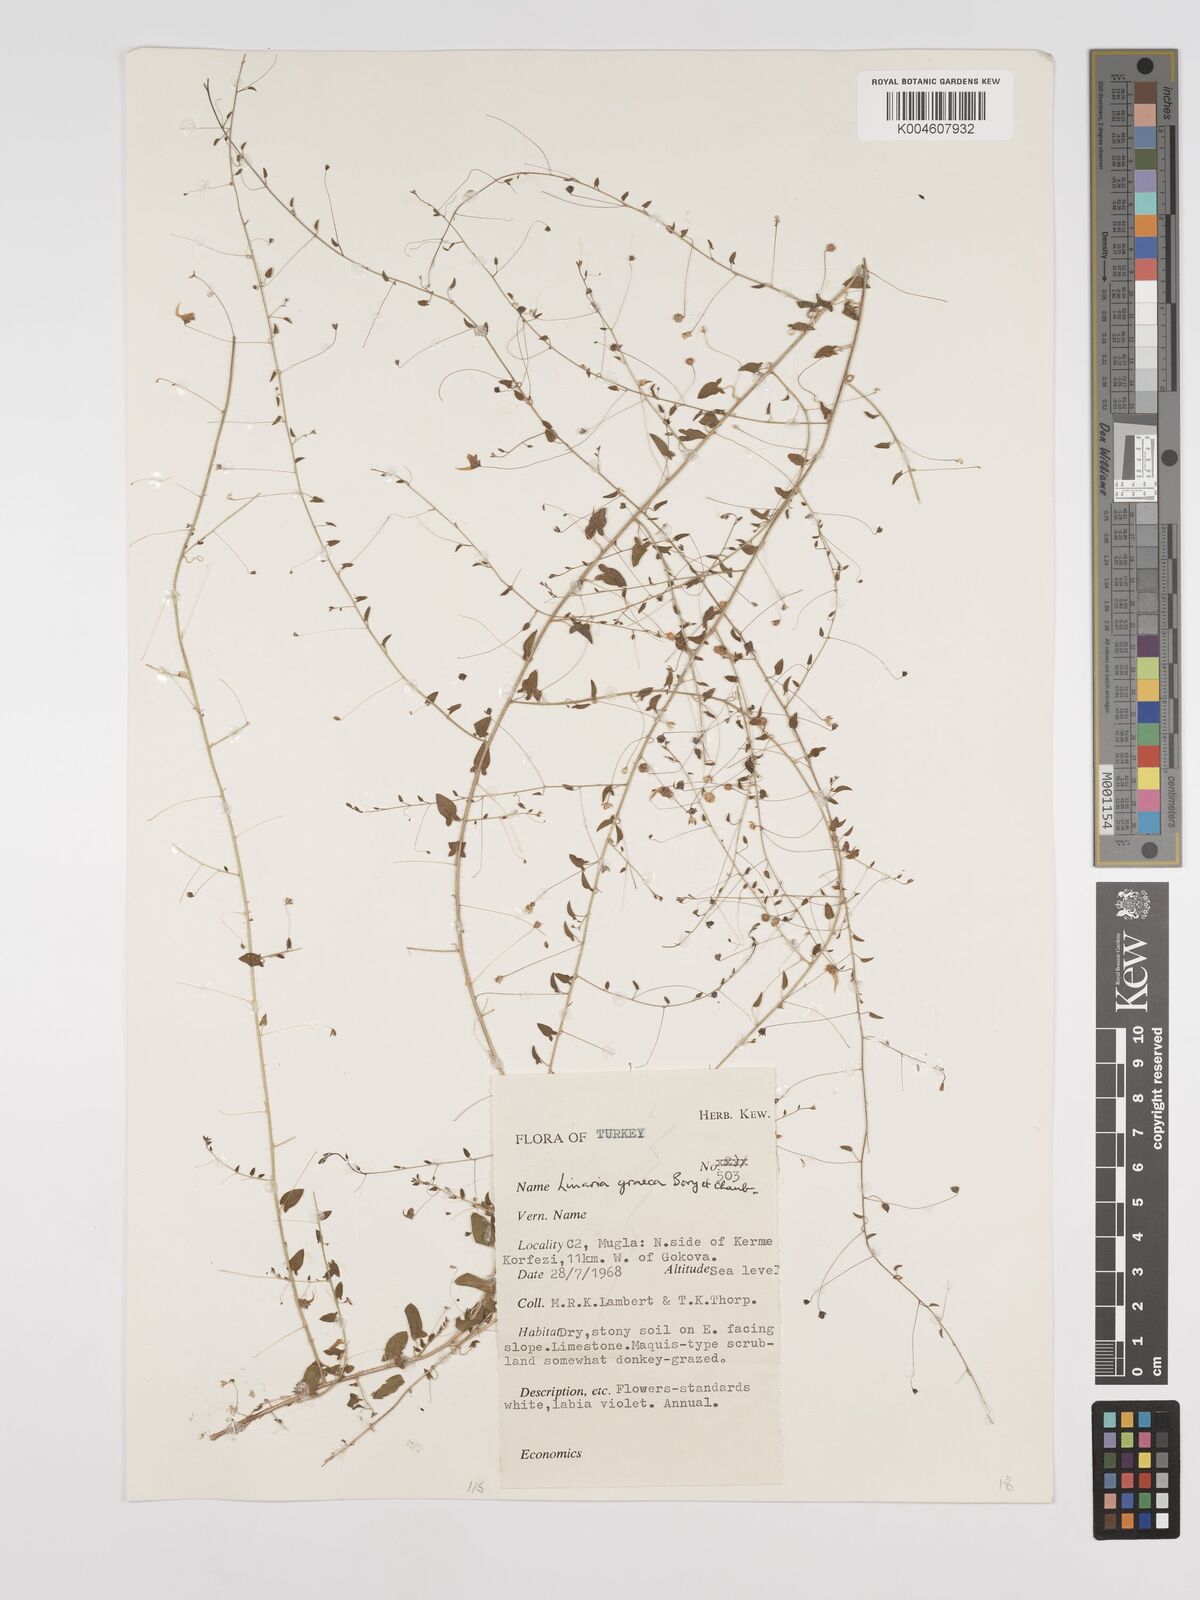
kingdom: Plantae
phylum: Tracheophyta
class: Magnoliopsida
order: Lamiales
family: Plantaginaceae
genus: Kickxia
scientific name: Kickxia commutata
